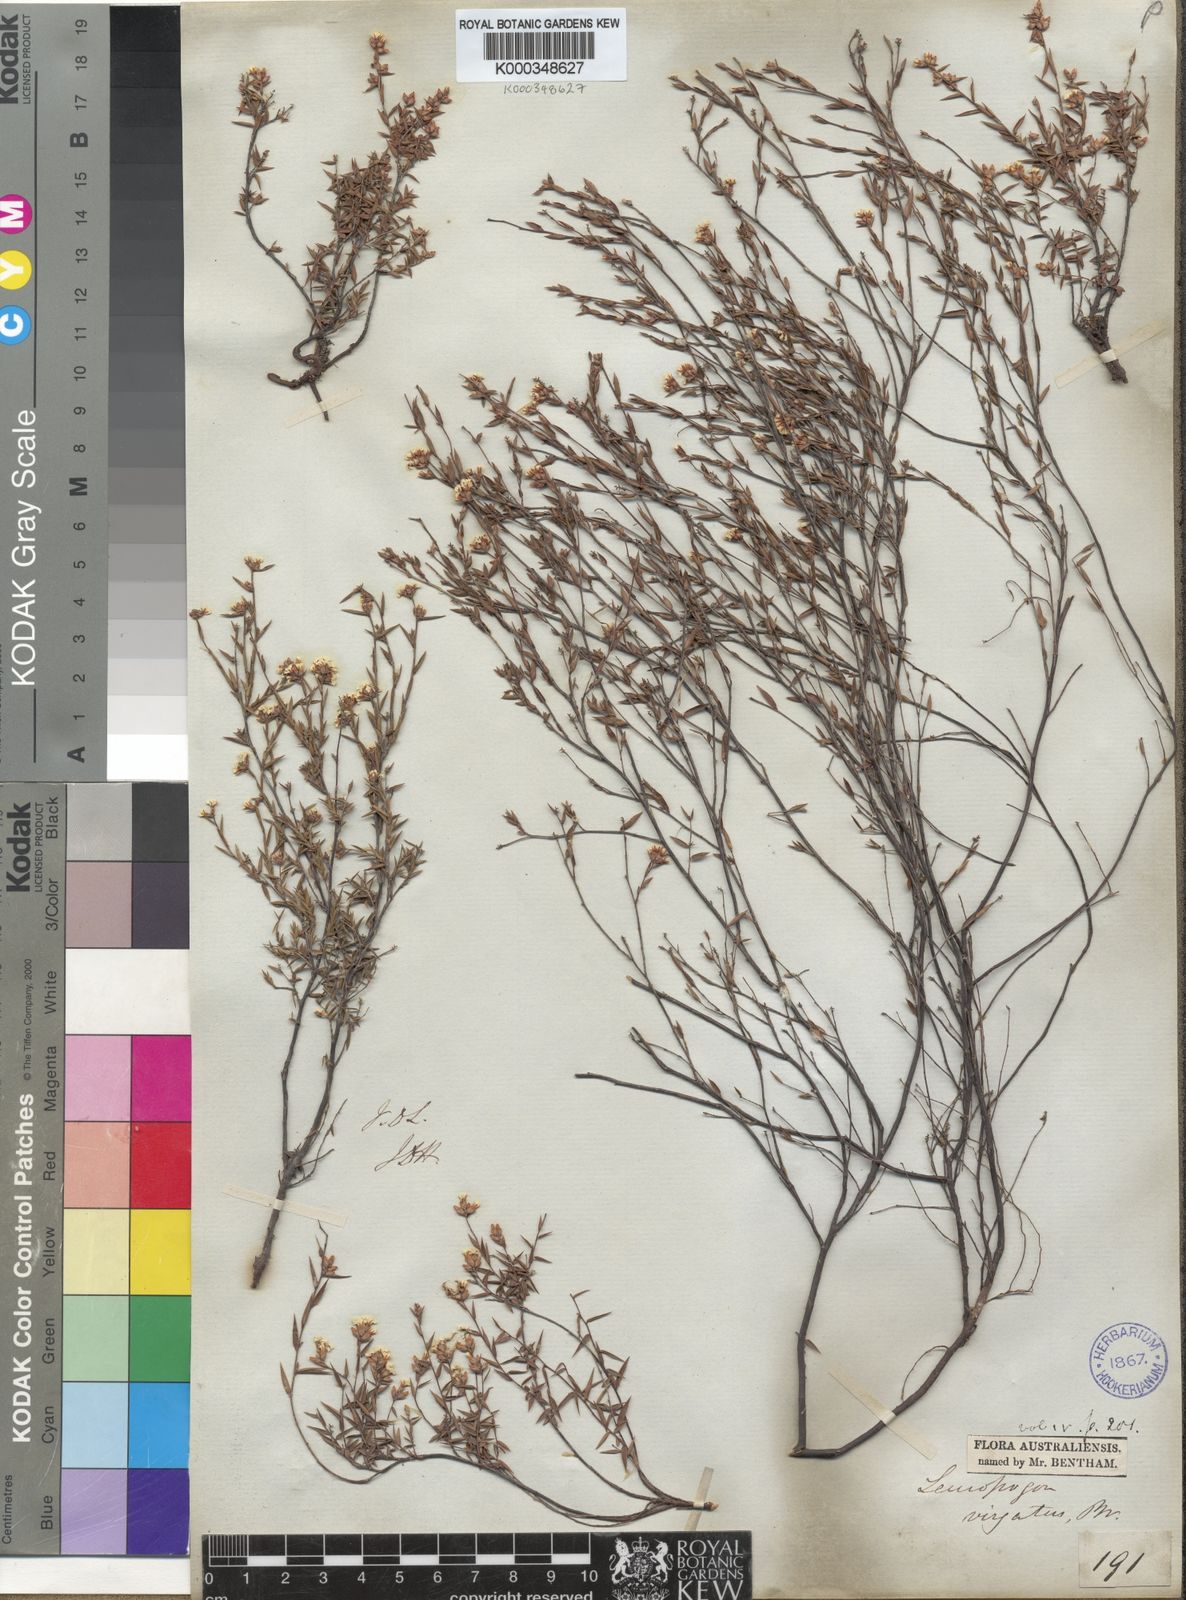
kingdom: Plantae
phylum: Tracheophyta
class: Magnoliopsida
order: Ericales
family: Ericaceae
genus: Leucopogon
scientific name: Leucopogon virgatus
